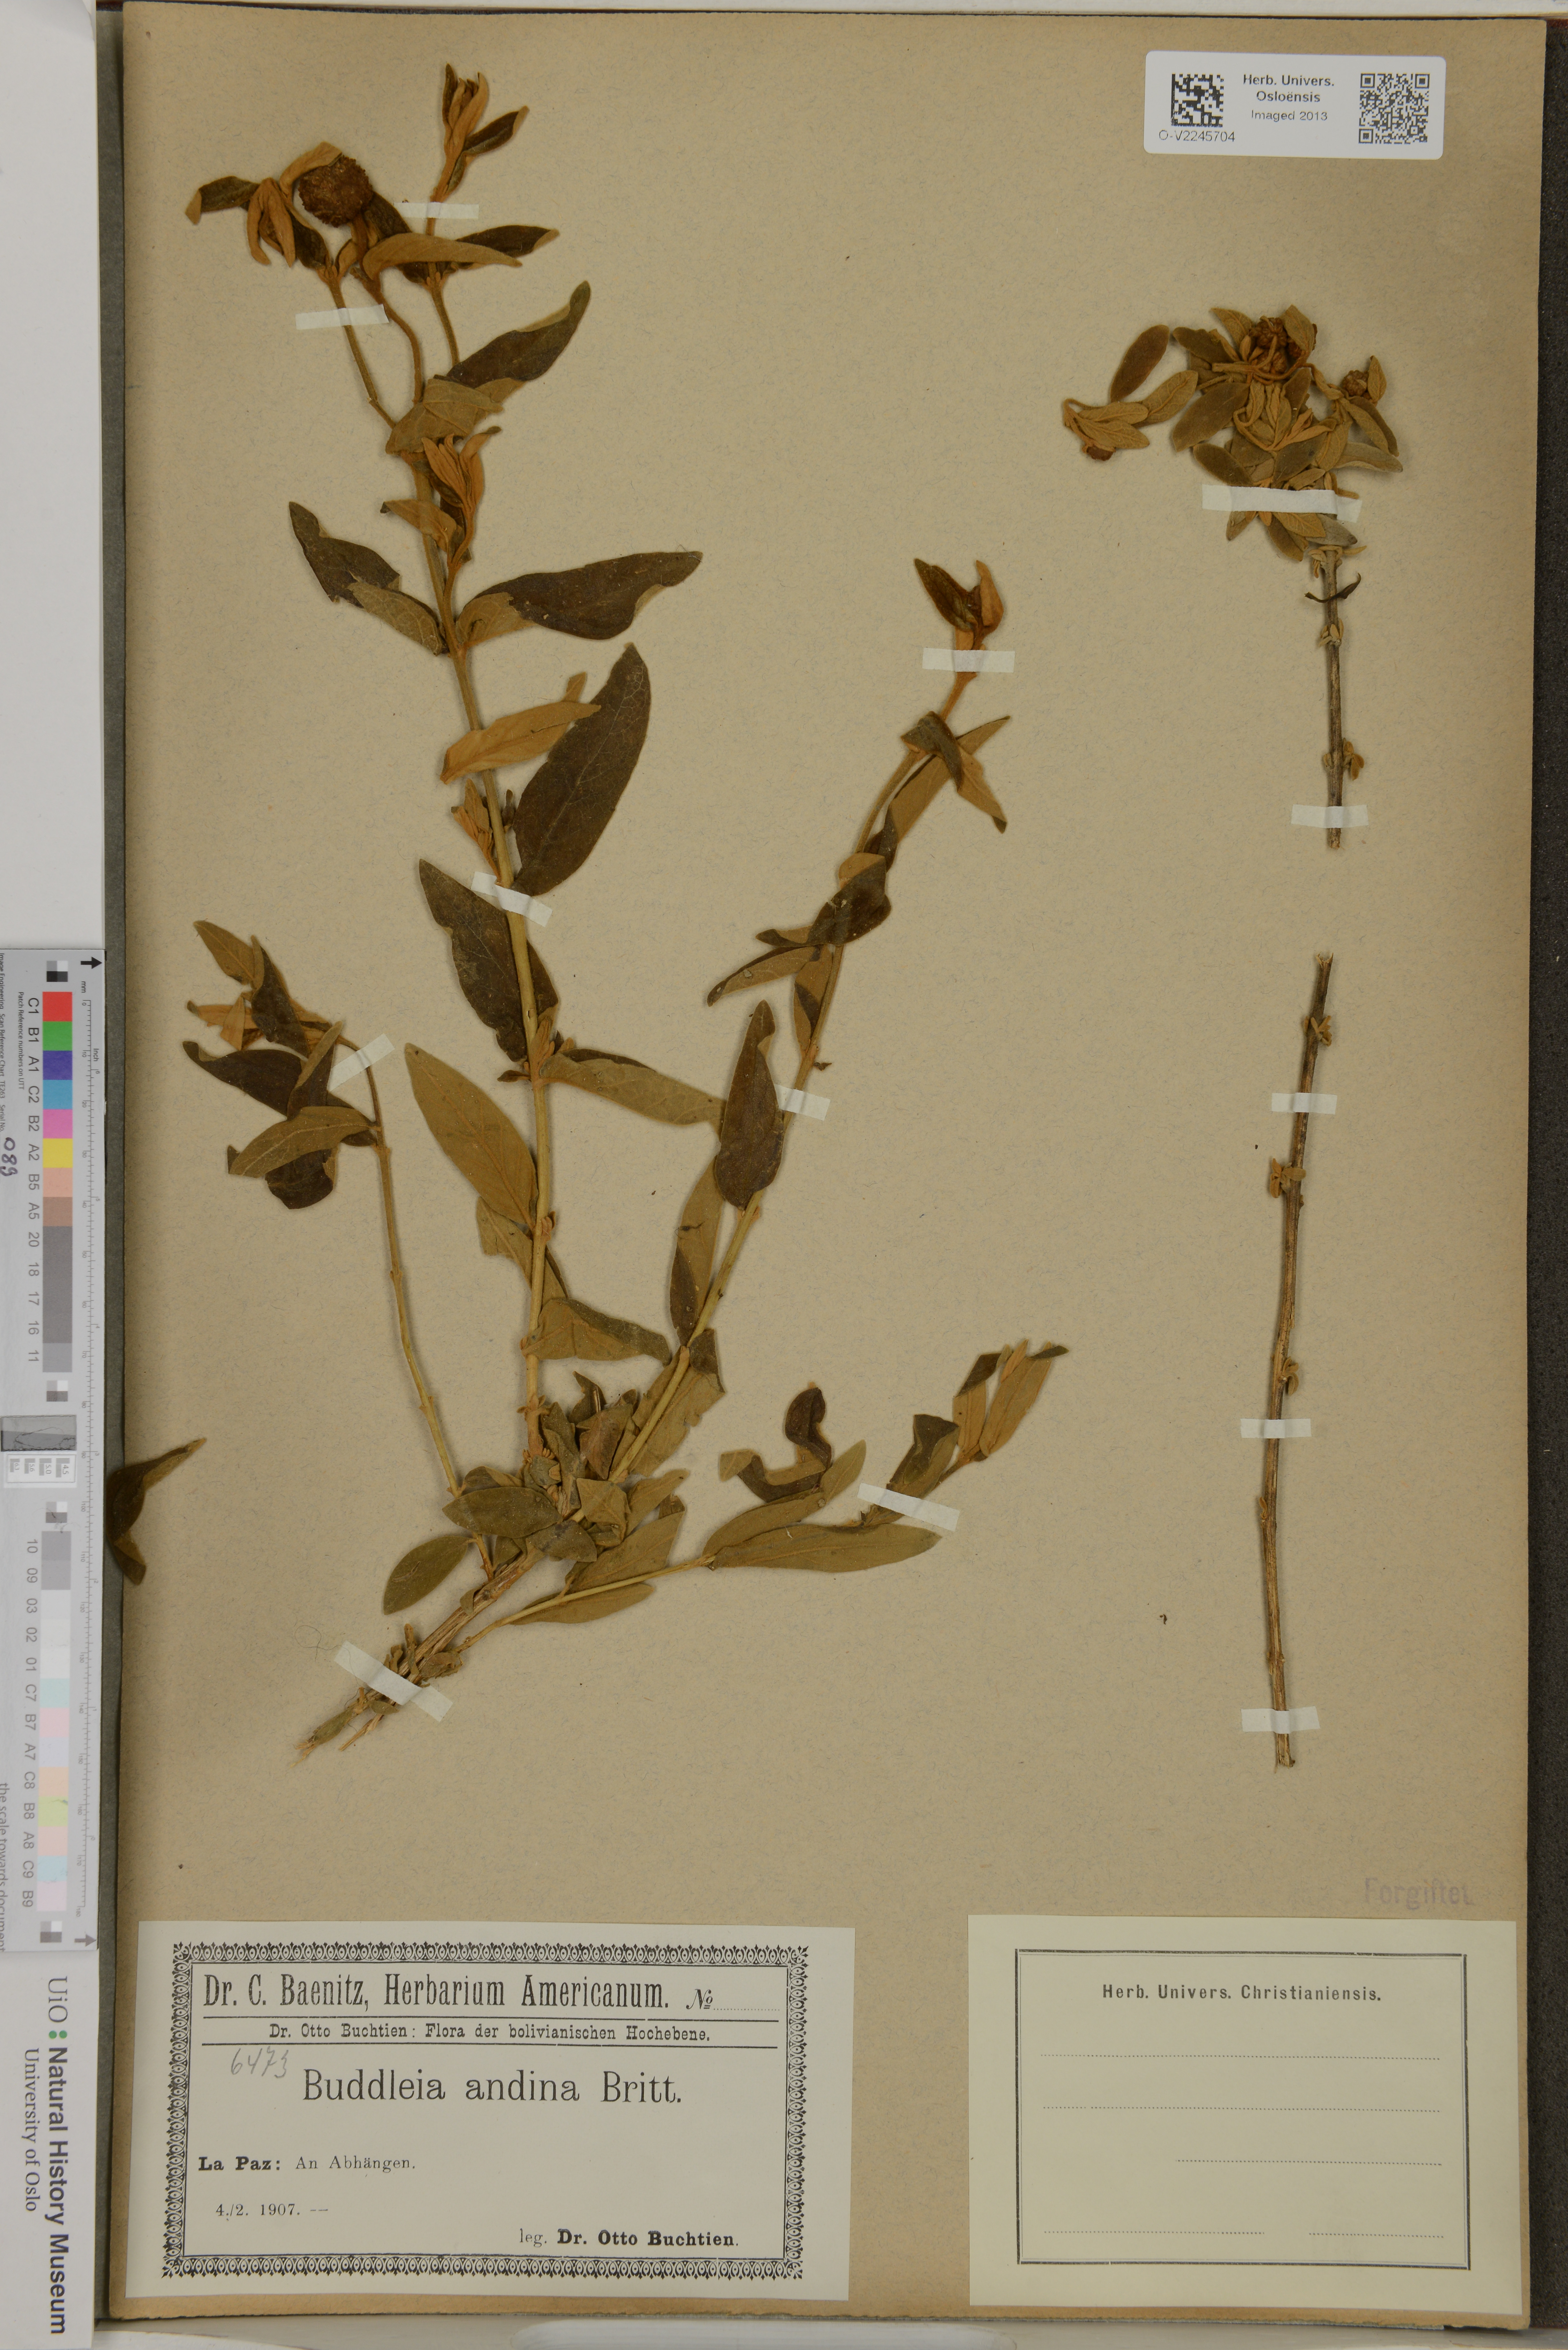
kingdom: Plantae
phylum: Tracheophyta
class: Magnoliopsida
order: Lamiales
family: Scrophulariaceae
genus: Buddleja
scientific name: Buddleja andina
